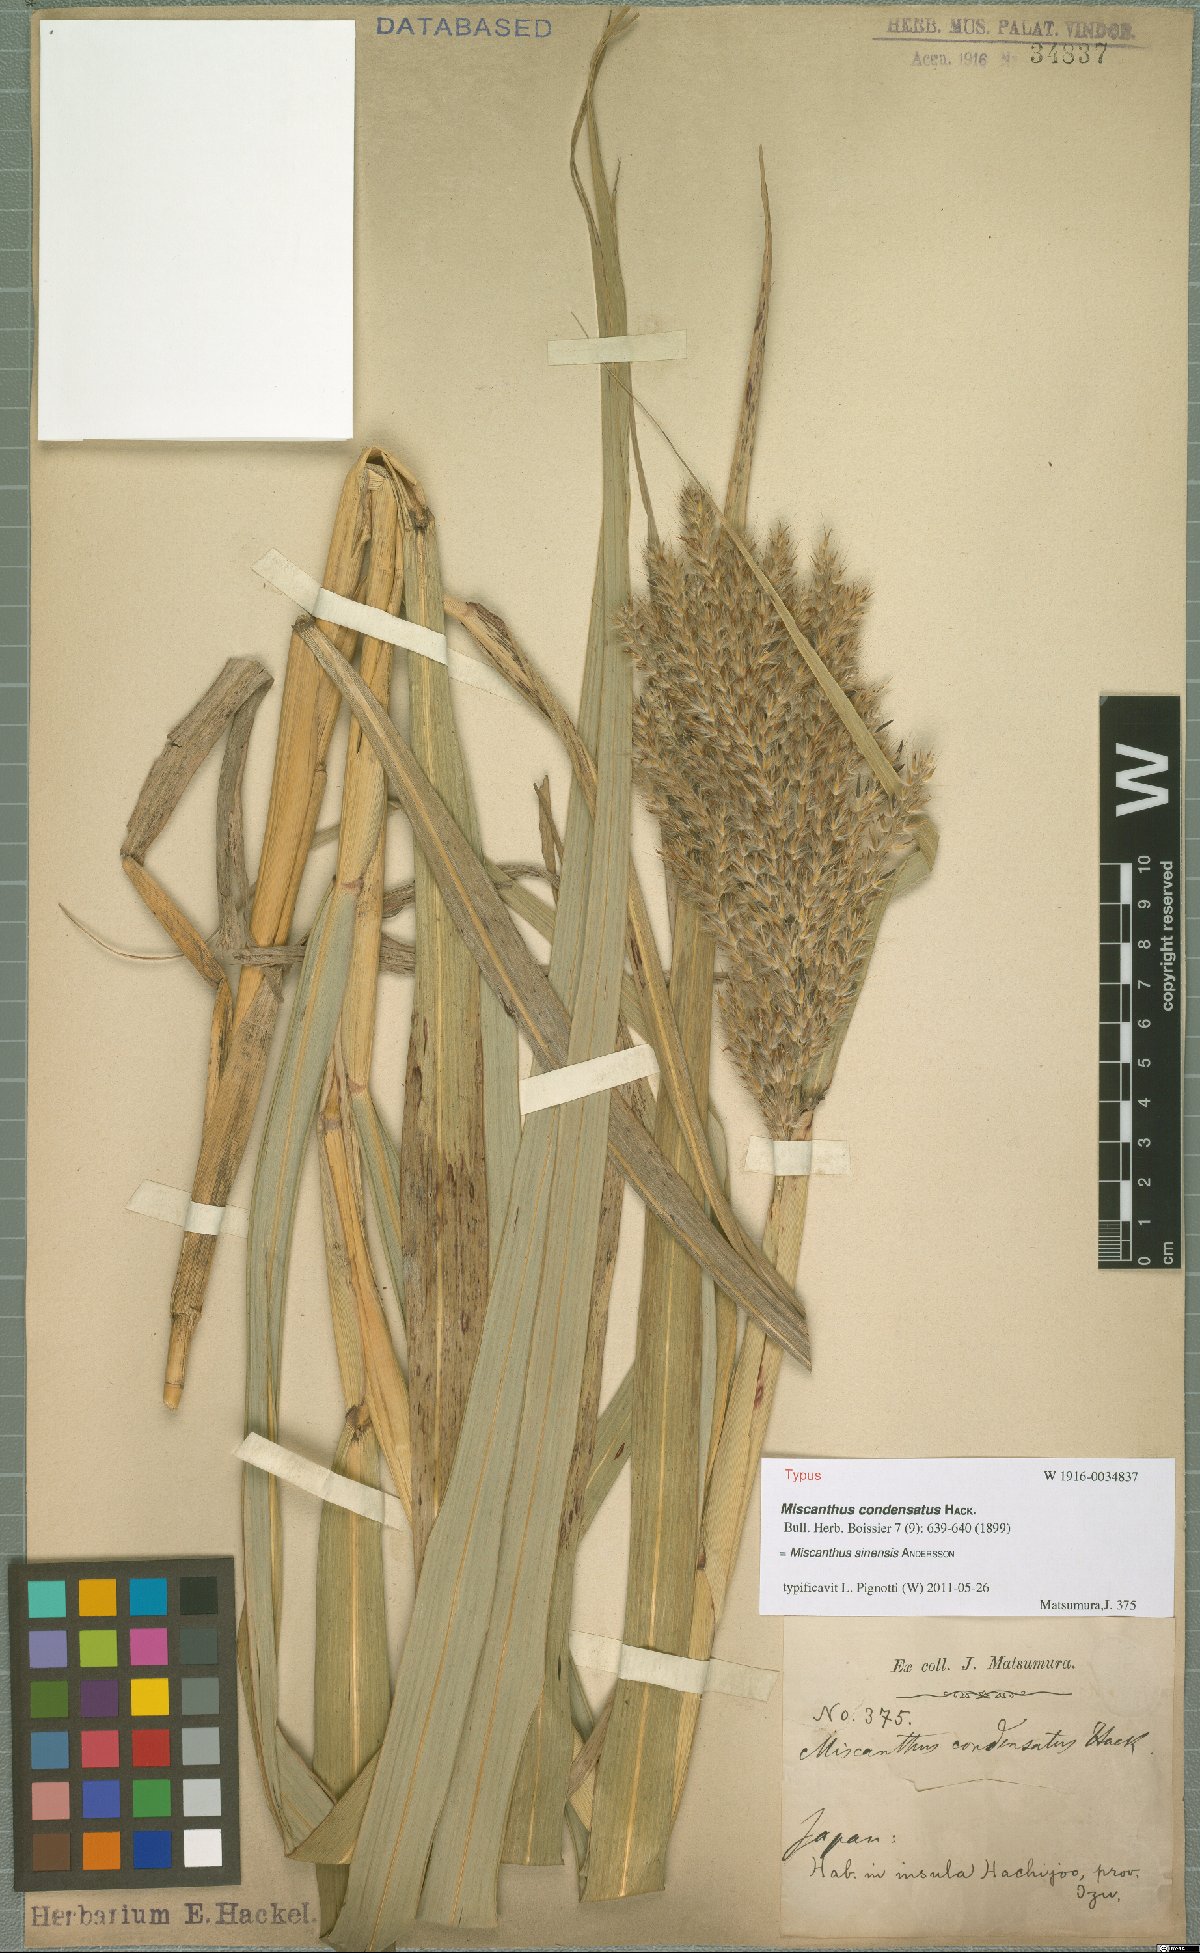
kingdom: Plantae
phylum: Tracheophyta
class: Liliopsida
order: Poales
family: Poaceae
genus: Miscanthus
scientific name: Miscanthus sinensis
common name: Chinese silvergrass
